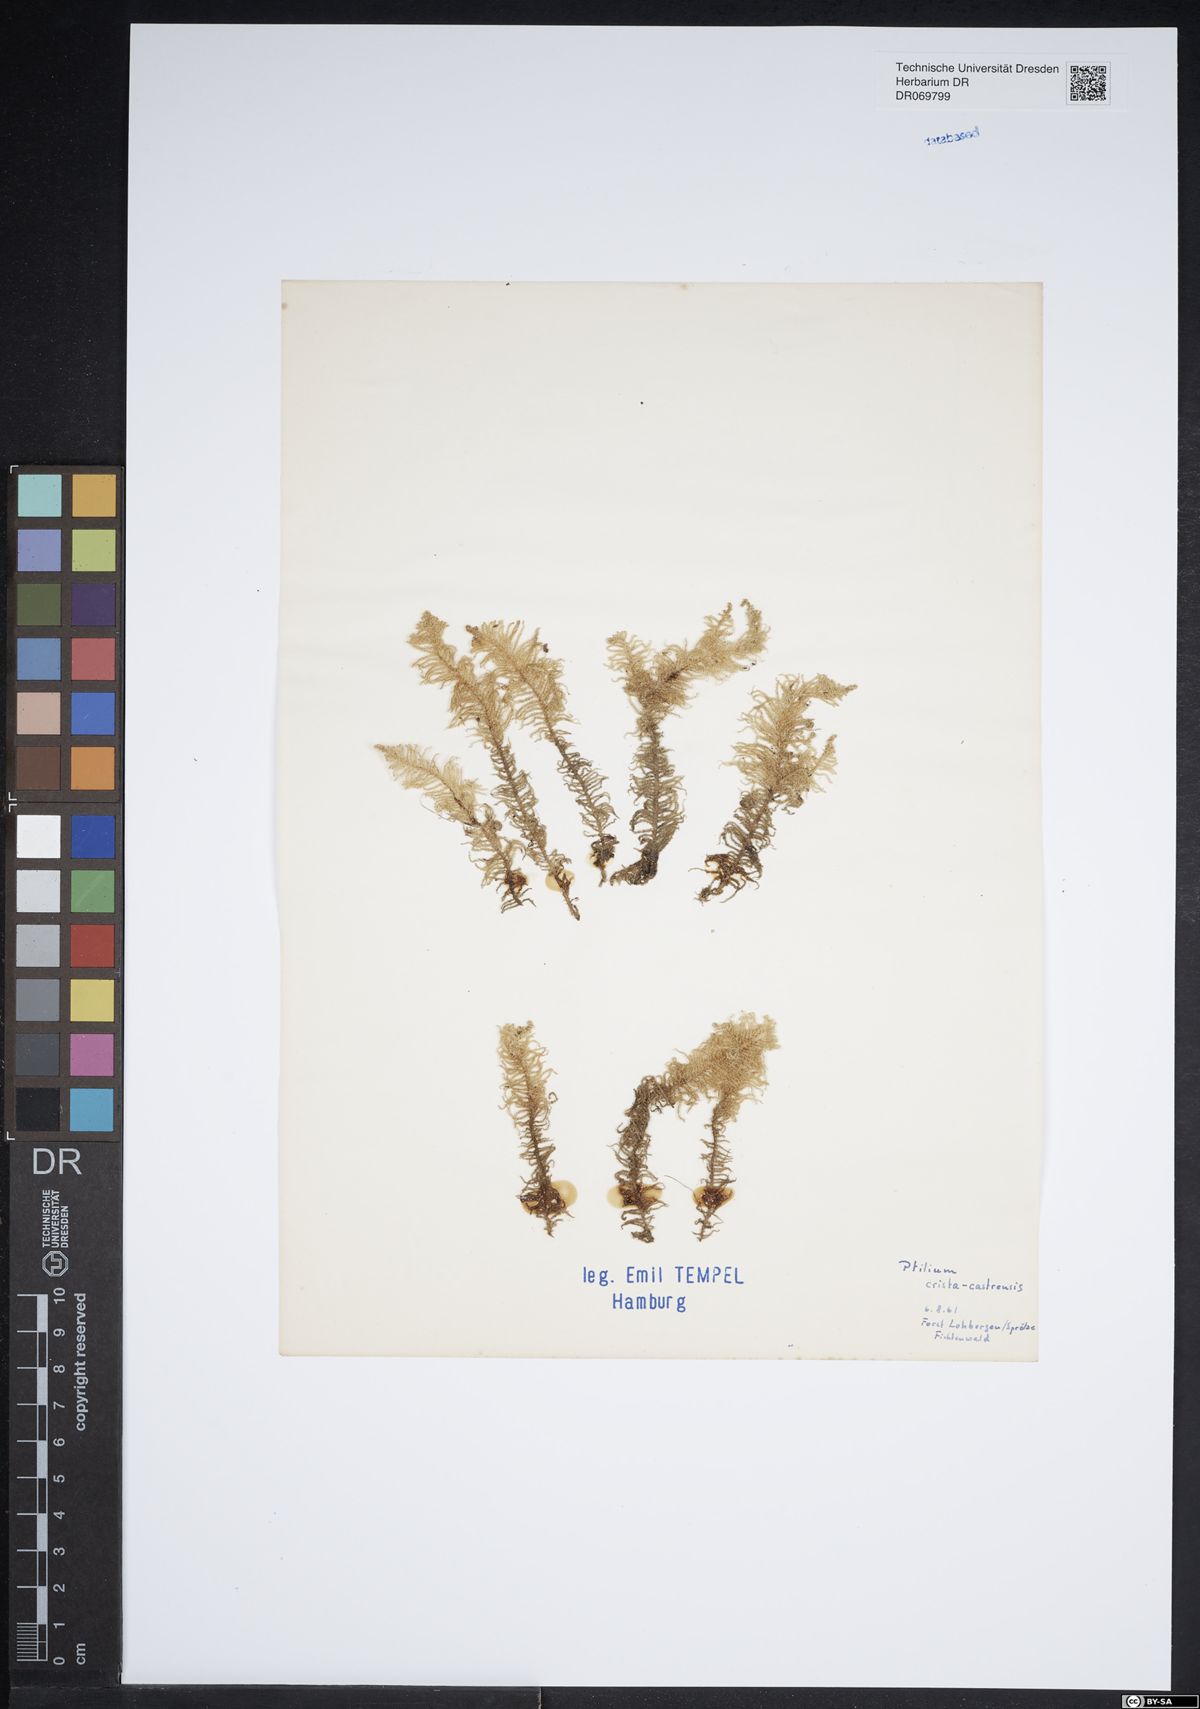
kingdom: Plantae
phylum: Bryophyta
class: Bryopsida
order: Hypnales
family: Pylaisiaceae
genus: Ptilium
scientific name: Ptilium crista-castrensis
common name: Knight's plume moss
